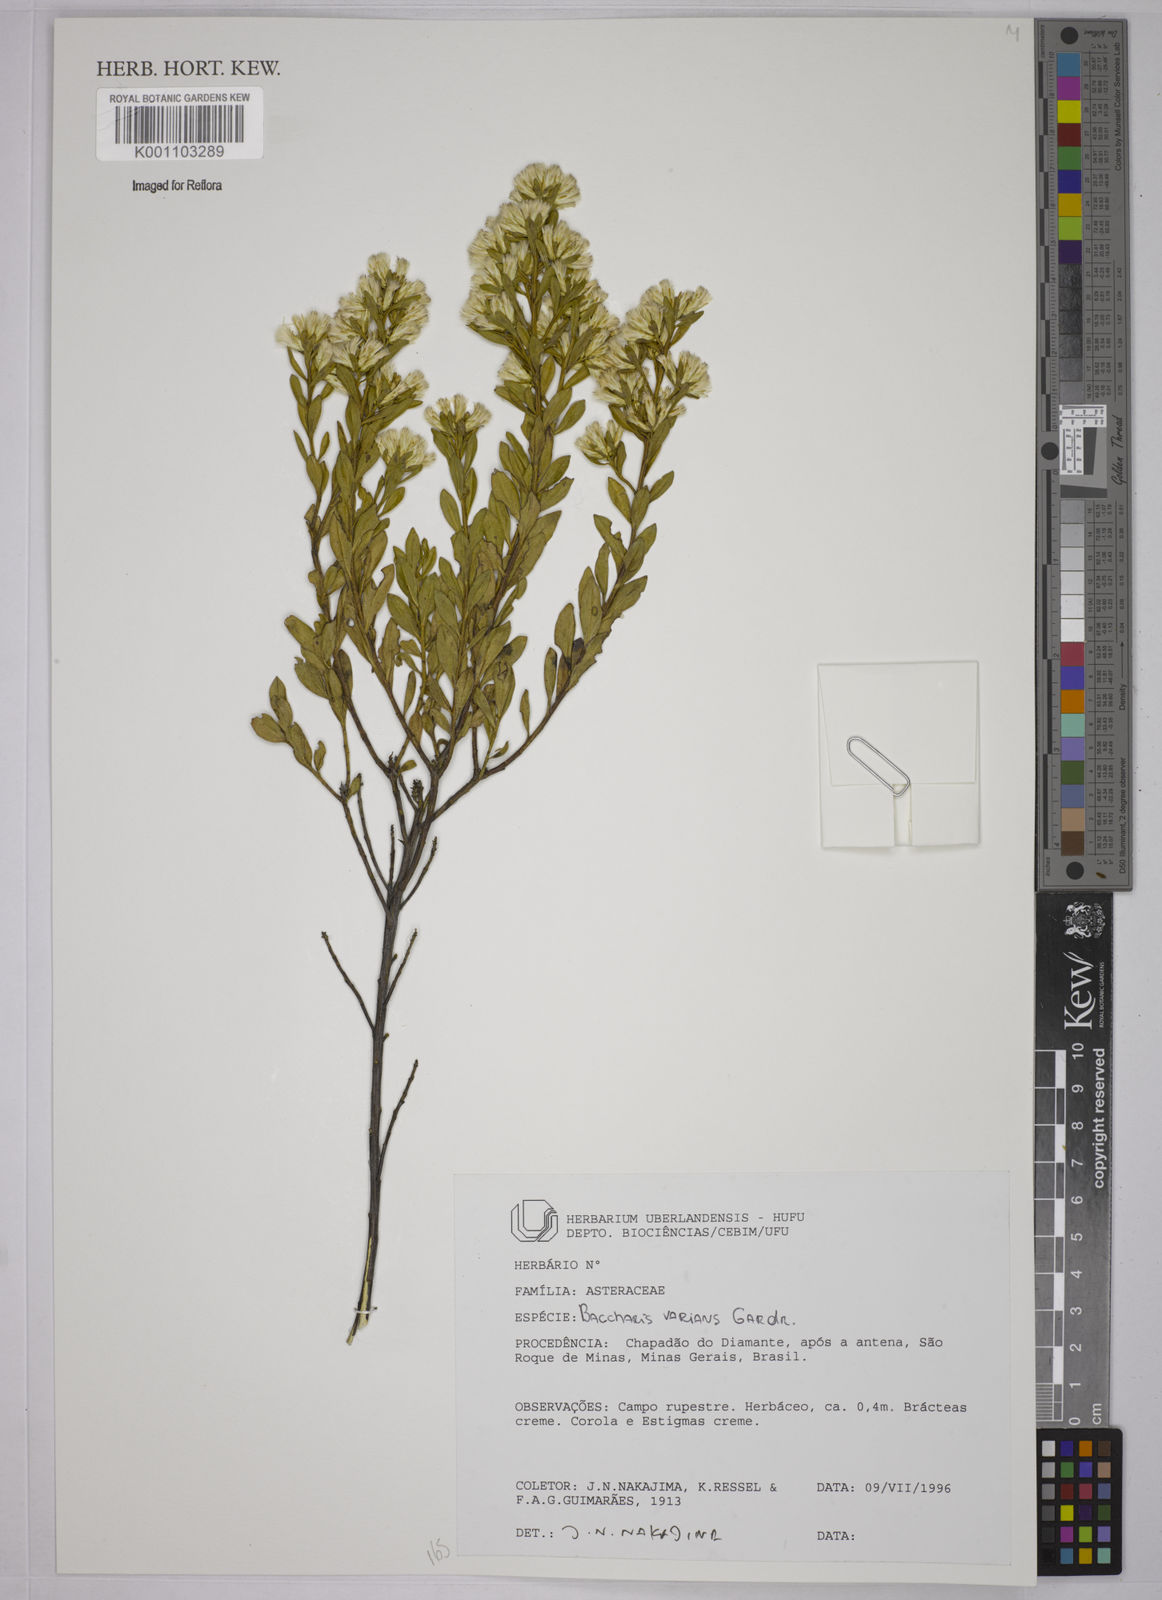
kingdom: Plantae
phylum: Tracheophyta
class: Magnoliopsida
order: Asterales
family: Asteraceae
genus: Baccharis
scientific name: Baccharis varians
